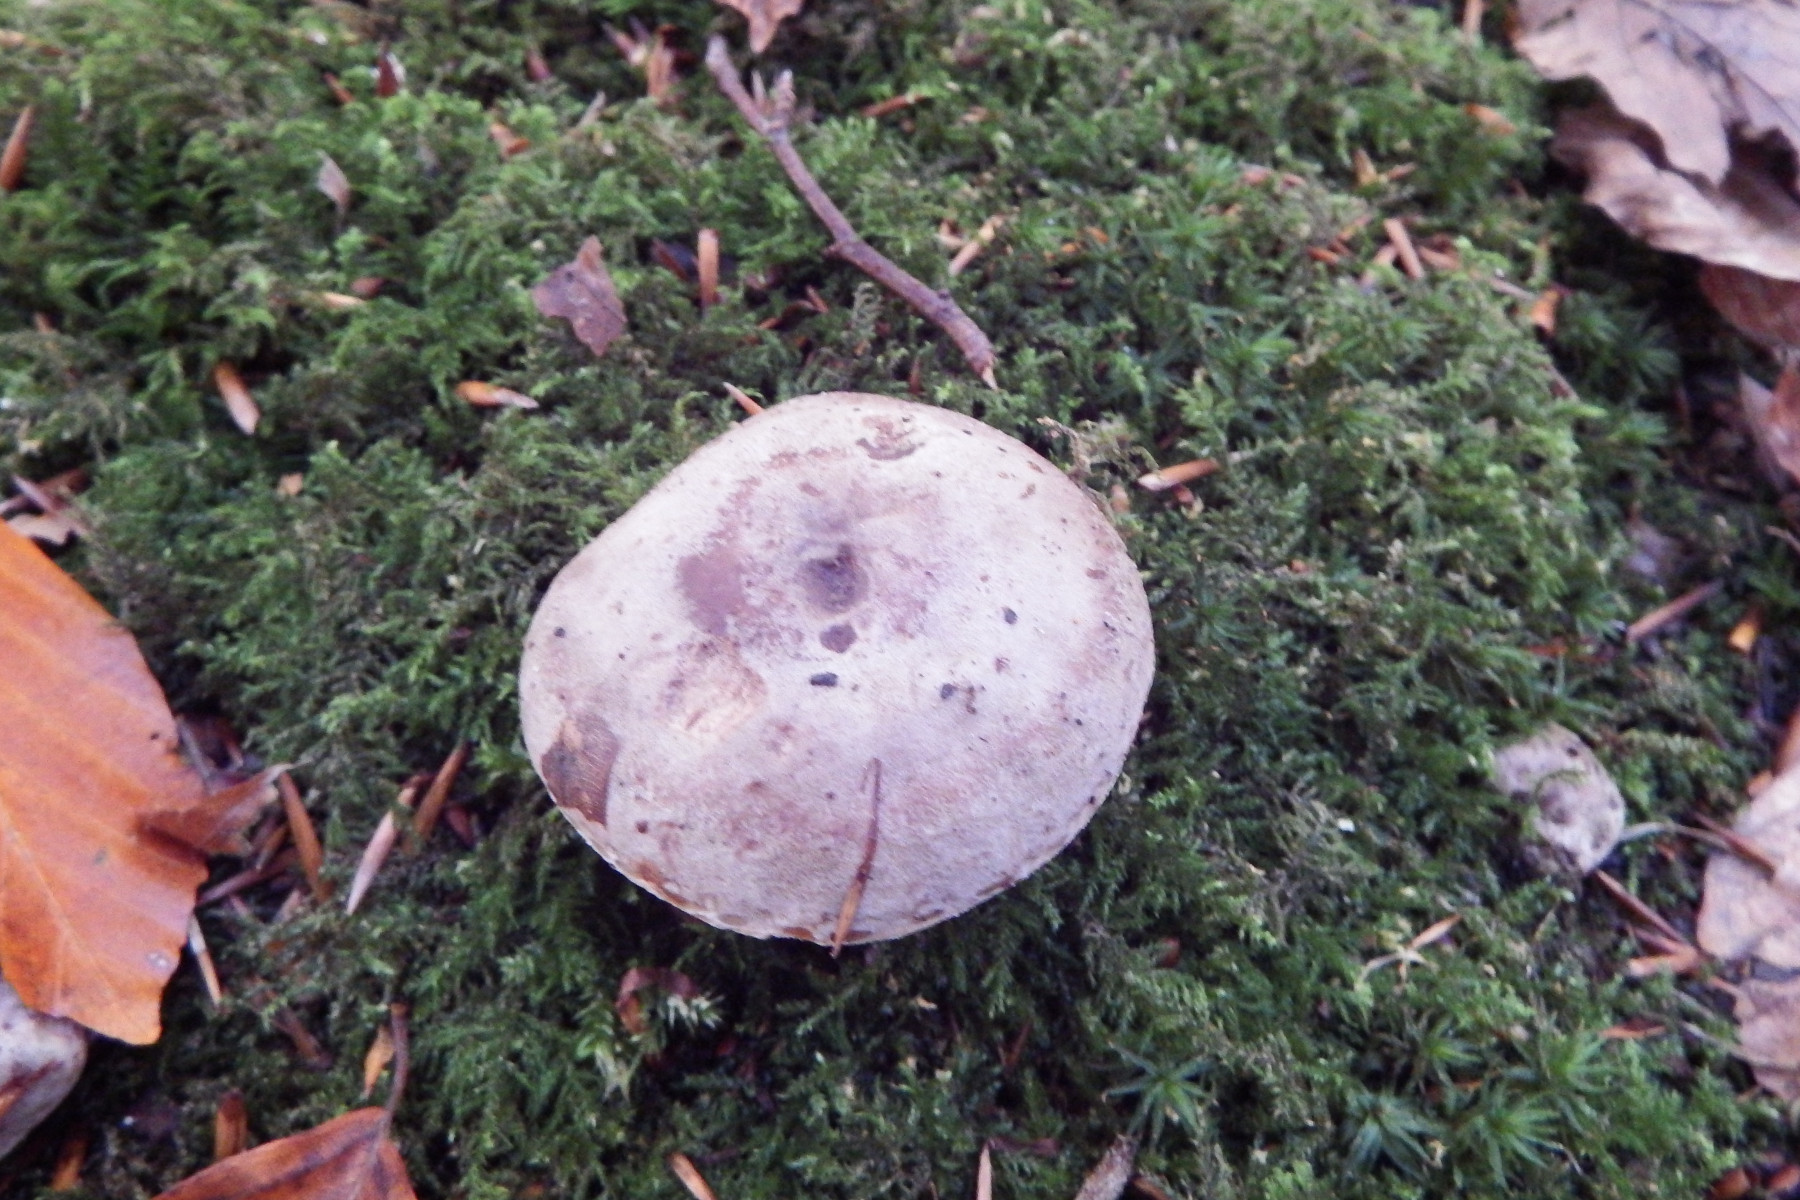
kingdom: Fungi
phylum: Basidiomycota
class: Agaricomycetes
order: Russulales
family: Russulaceae
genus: Lactarius
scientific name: Lactarius blennius
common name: dråbeplettet mælkehat
